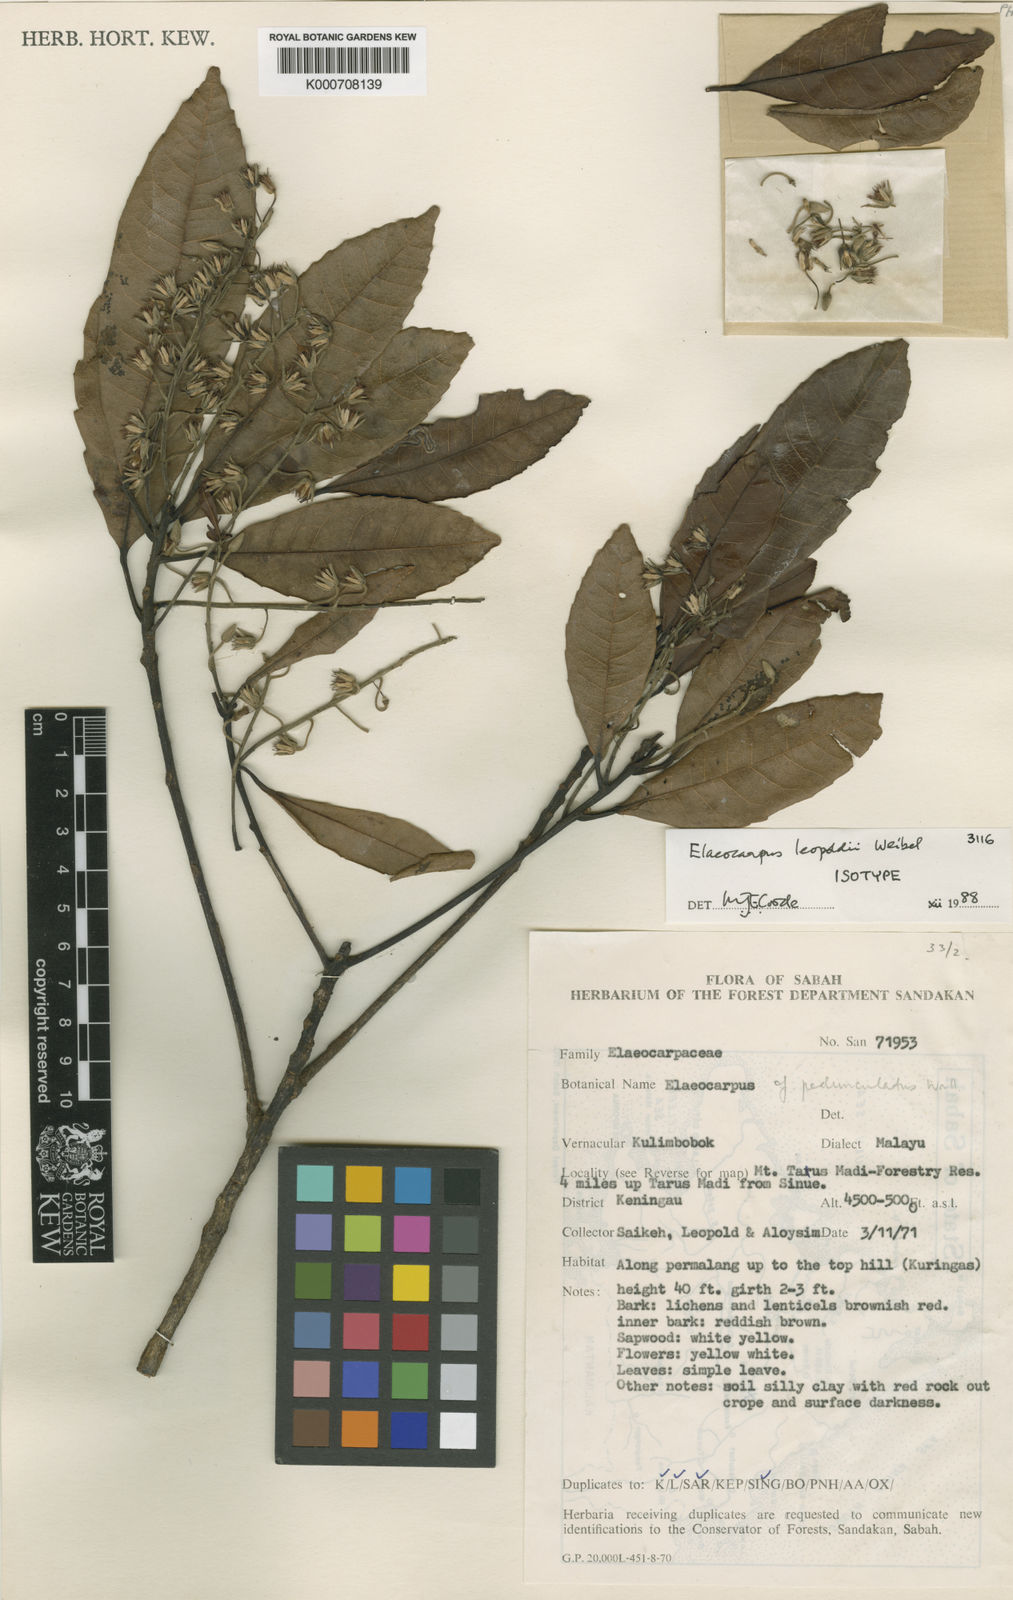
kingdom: Plantae
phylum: Tracheophyta
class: Magnoliopsida
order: Oxalidales
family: Elaeocarpaceae
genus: Elaeocarpus
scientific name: Elaeocarpus leopoldii
